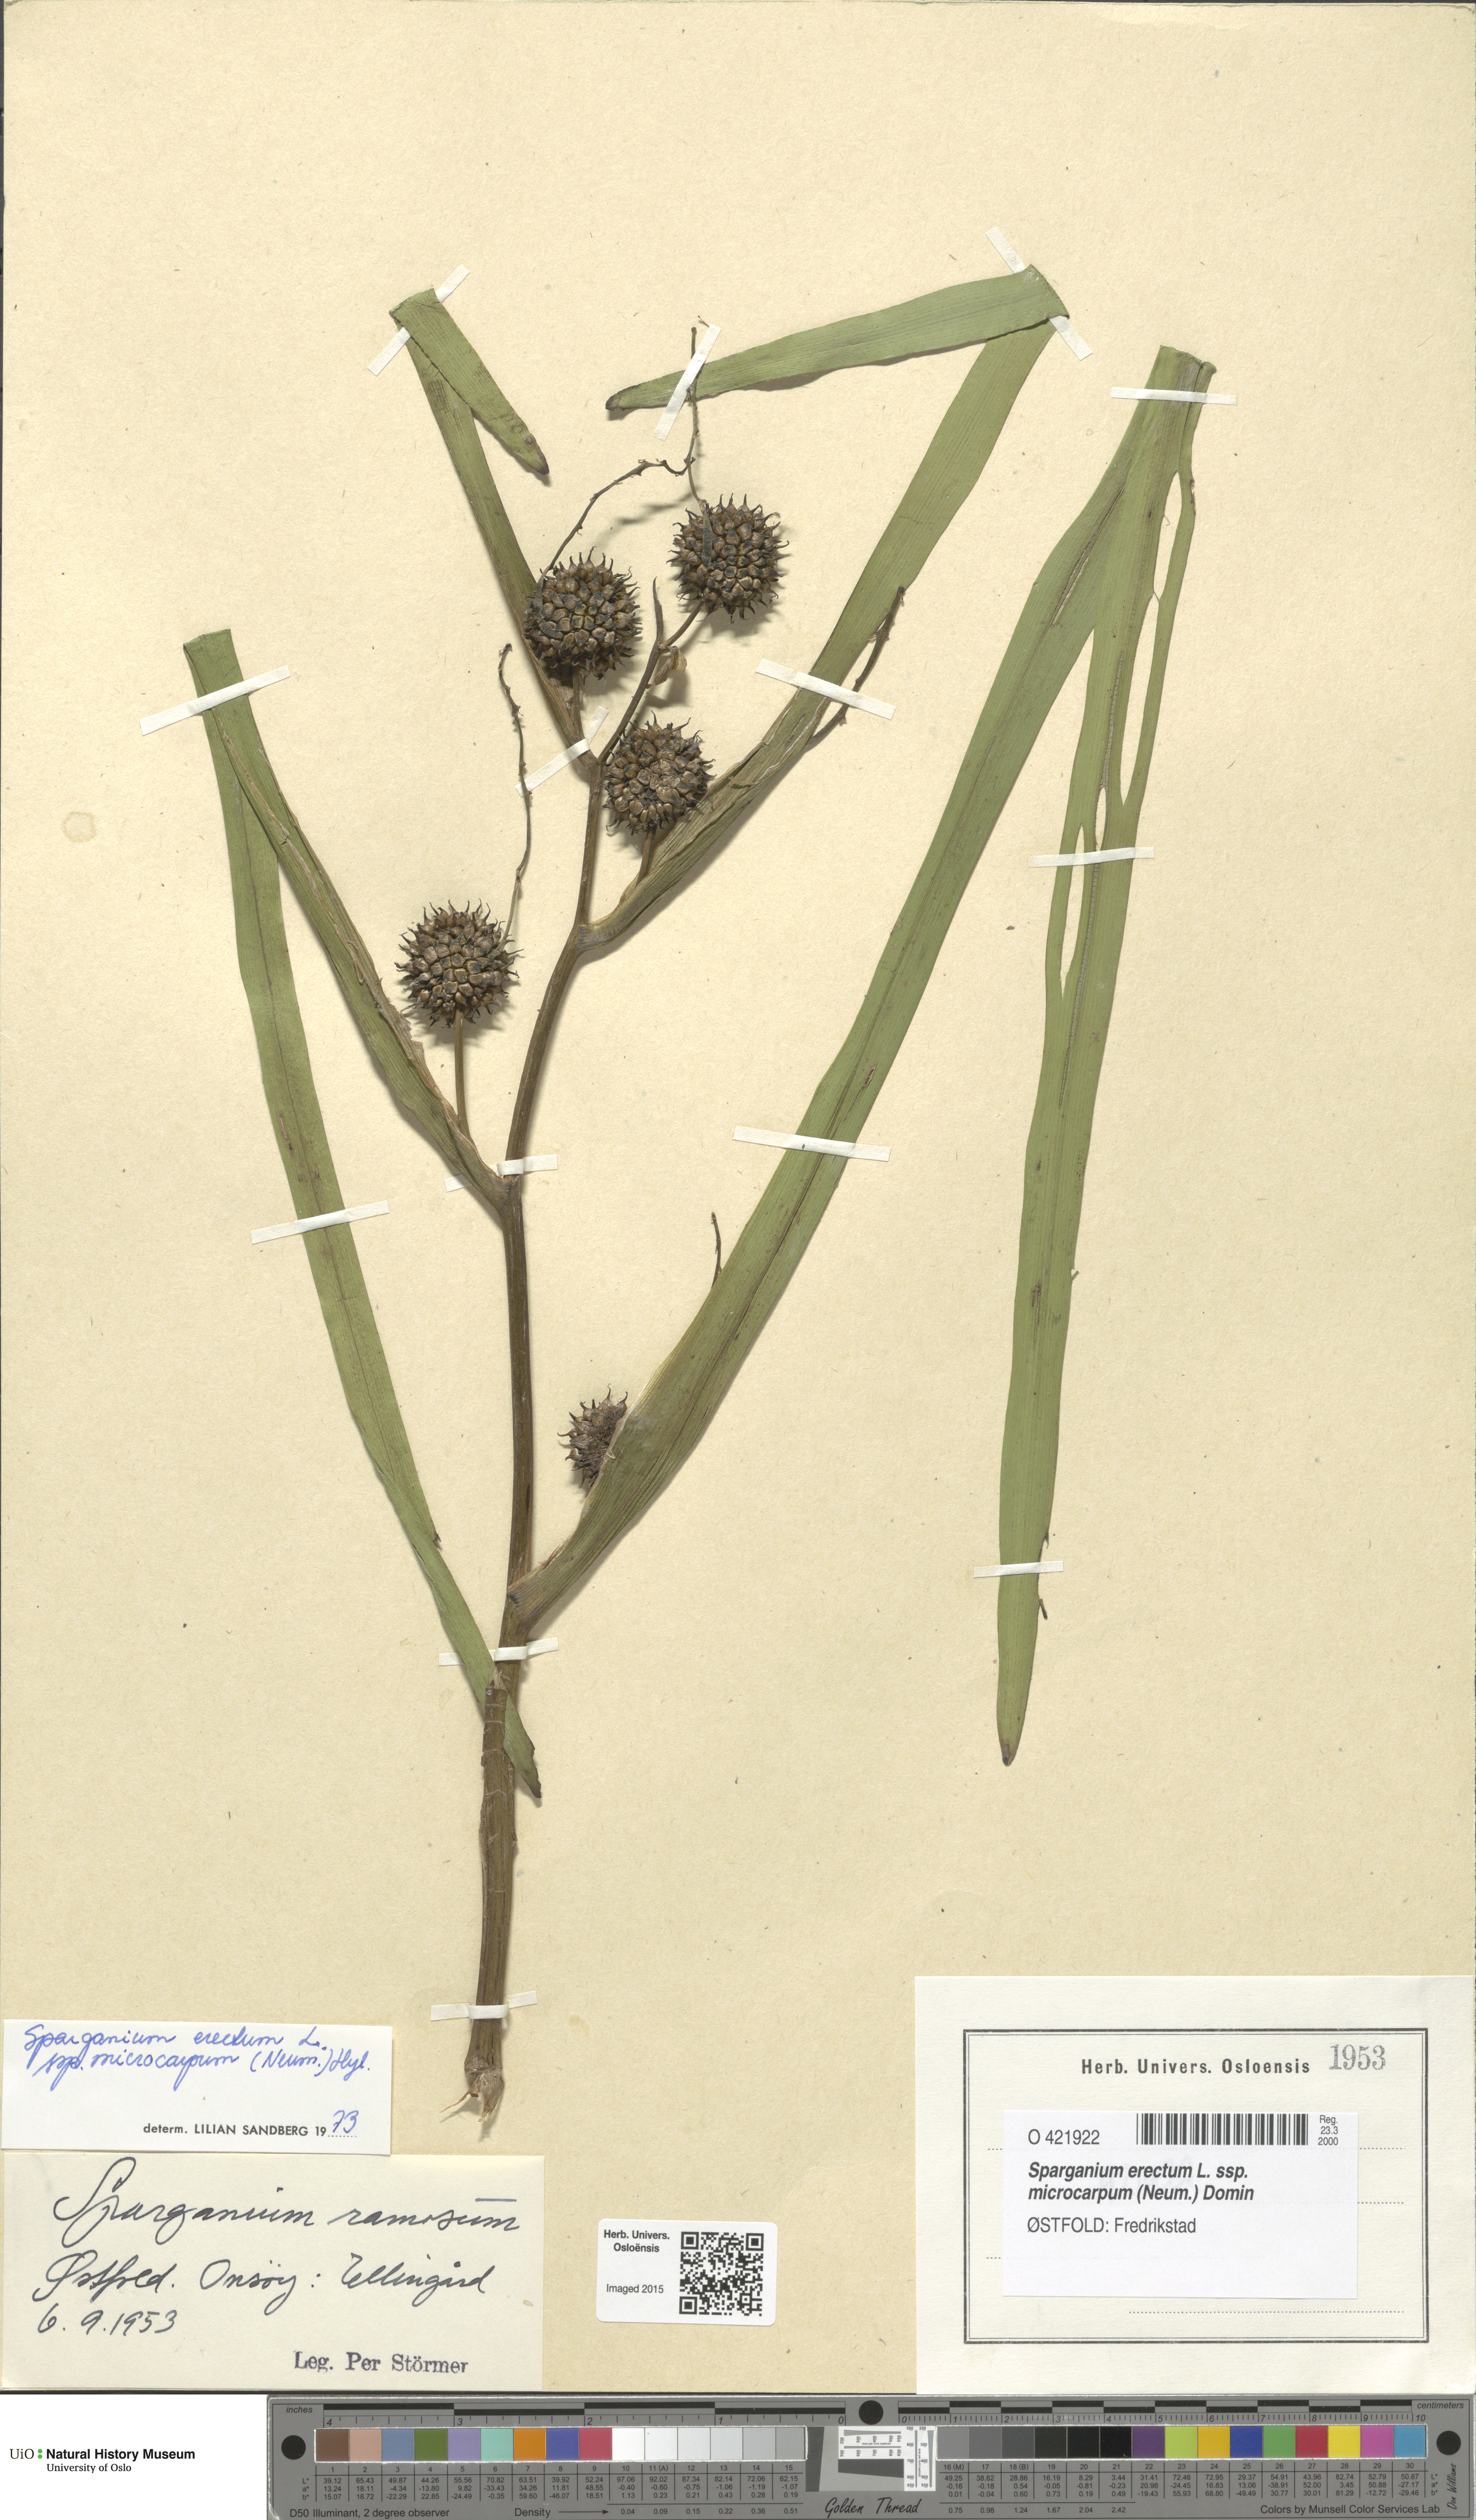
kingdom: Plantae
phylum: Tracheophyta
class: Liliopsida
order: Poales
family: Typhaceae
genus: Sparganium
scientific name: Sparganium erectum
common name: Branched bur-reed
